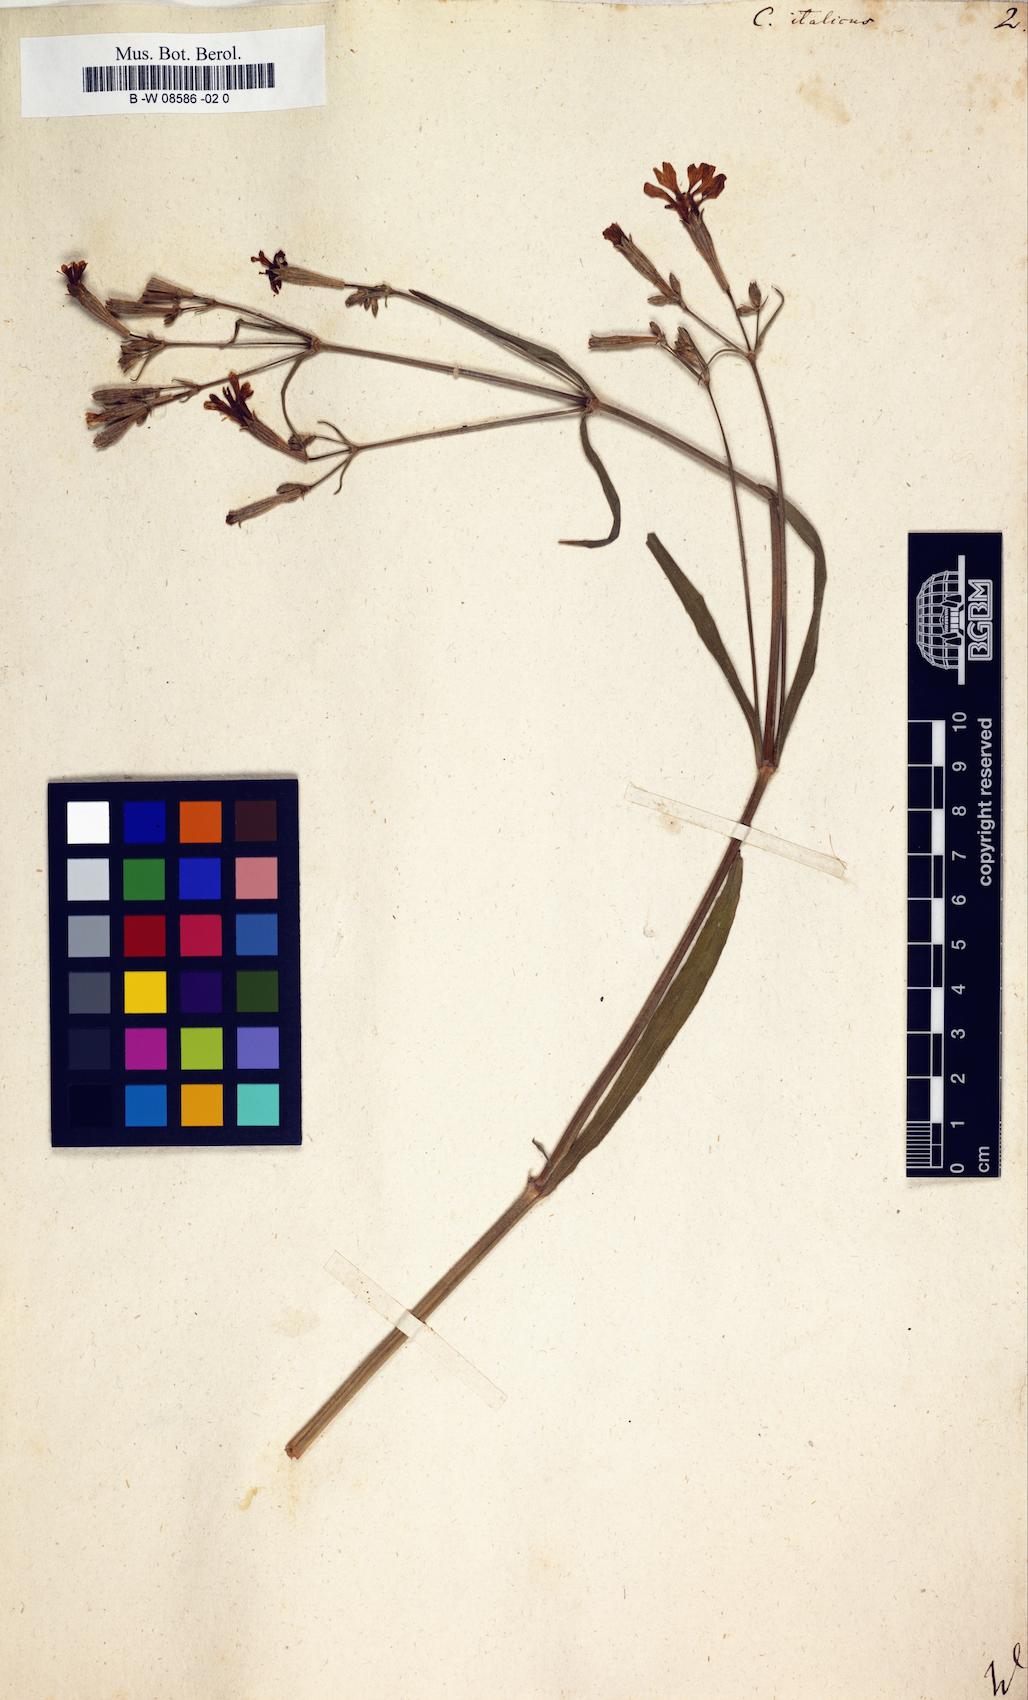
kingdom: Plantae
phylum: Tracheophyta
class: Magnoliopsida
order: Caryophyllales
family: Caryophyllaceae
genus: Silene
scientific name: Silene italica
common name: Italian catchfly
